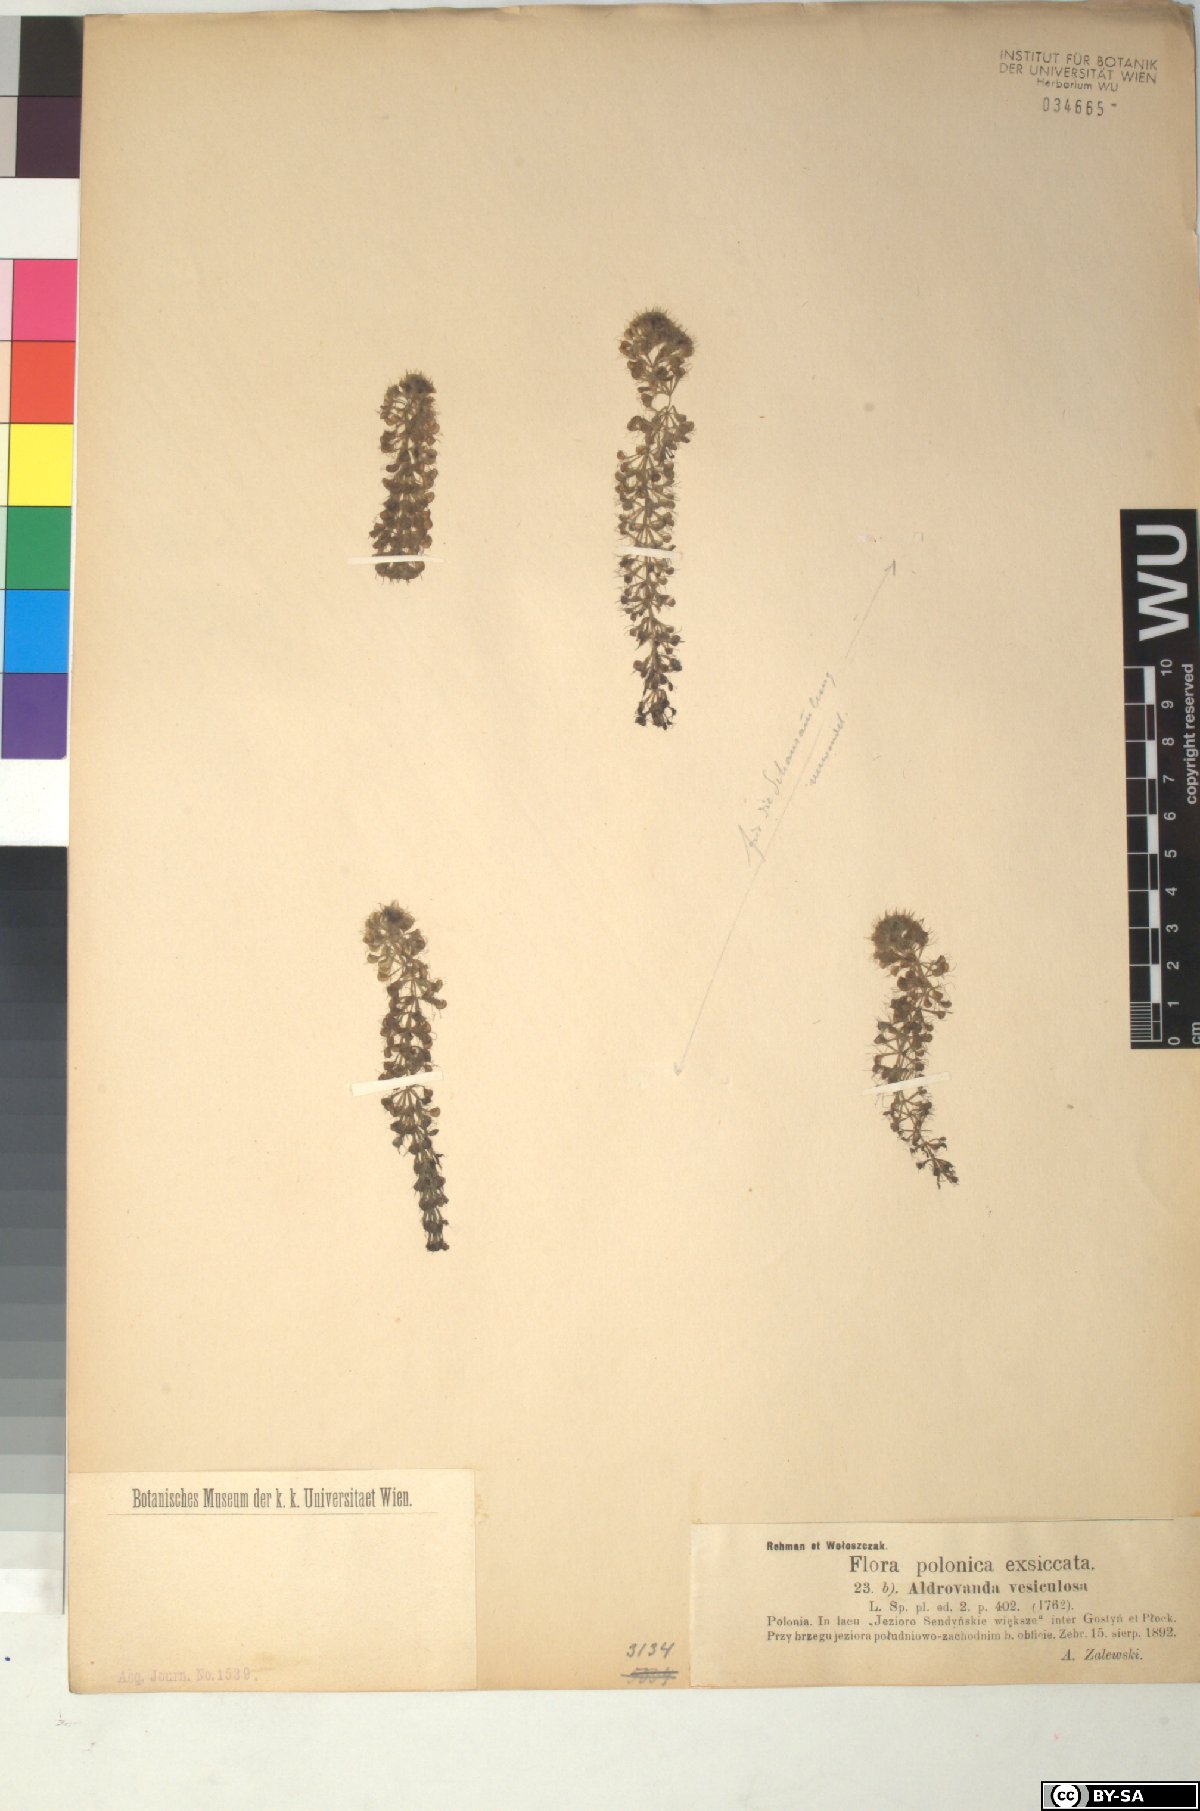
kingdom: Plantae
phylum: Tracheophyta
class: Magnoliopsida
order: Caryophyllales
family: Droseraceae
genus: Aldrovanda
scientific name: Aldrovanda vesiculosa
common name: Waterwheel plant
